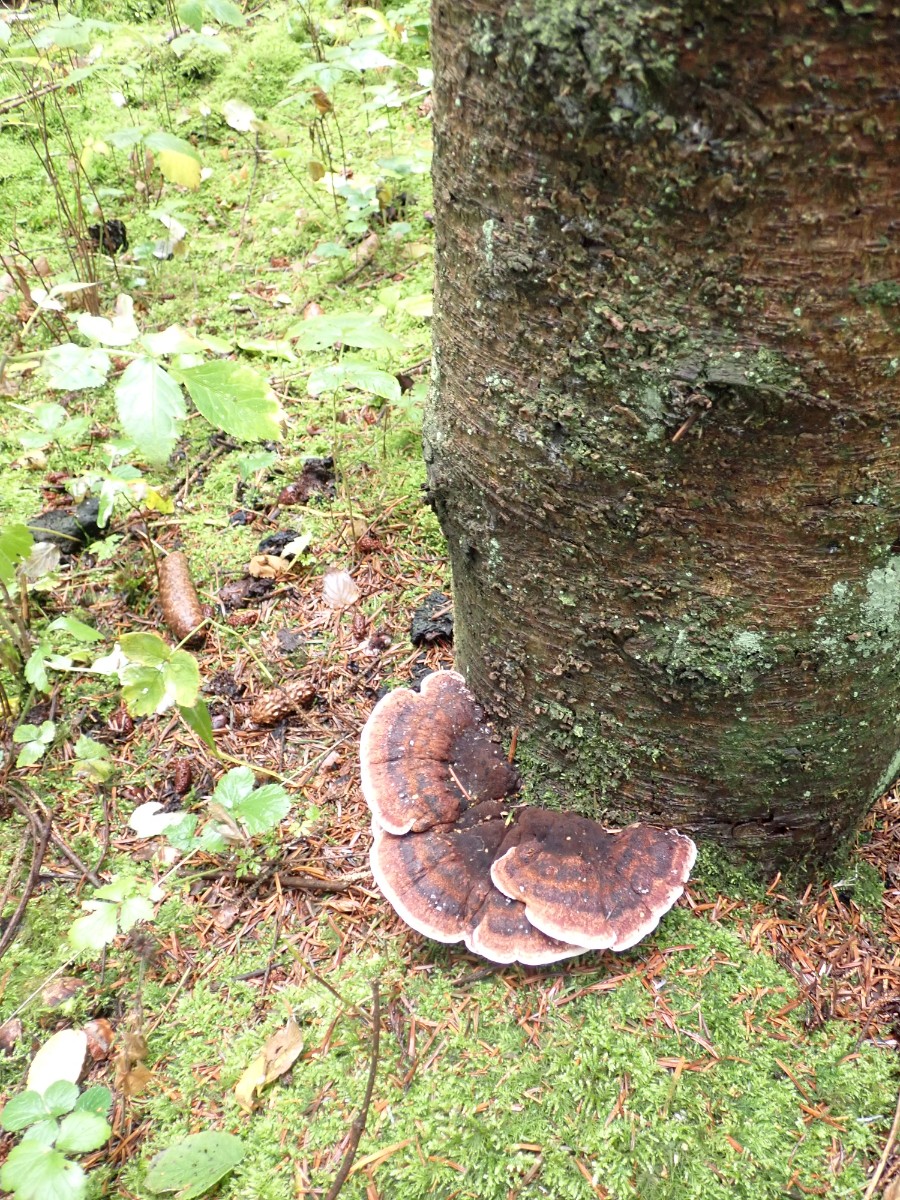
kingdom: Fungi
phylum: Basidiomycota
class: Agaricomycetes
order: Polyporales
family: Ischnodermataceae
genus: Ischnoderma
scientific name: Ischnoderma benzoinum
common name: gran-tjæreporesvamp
